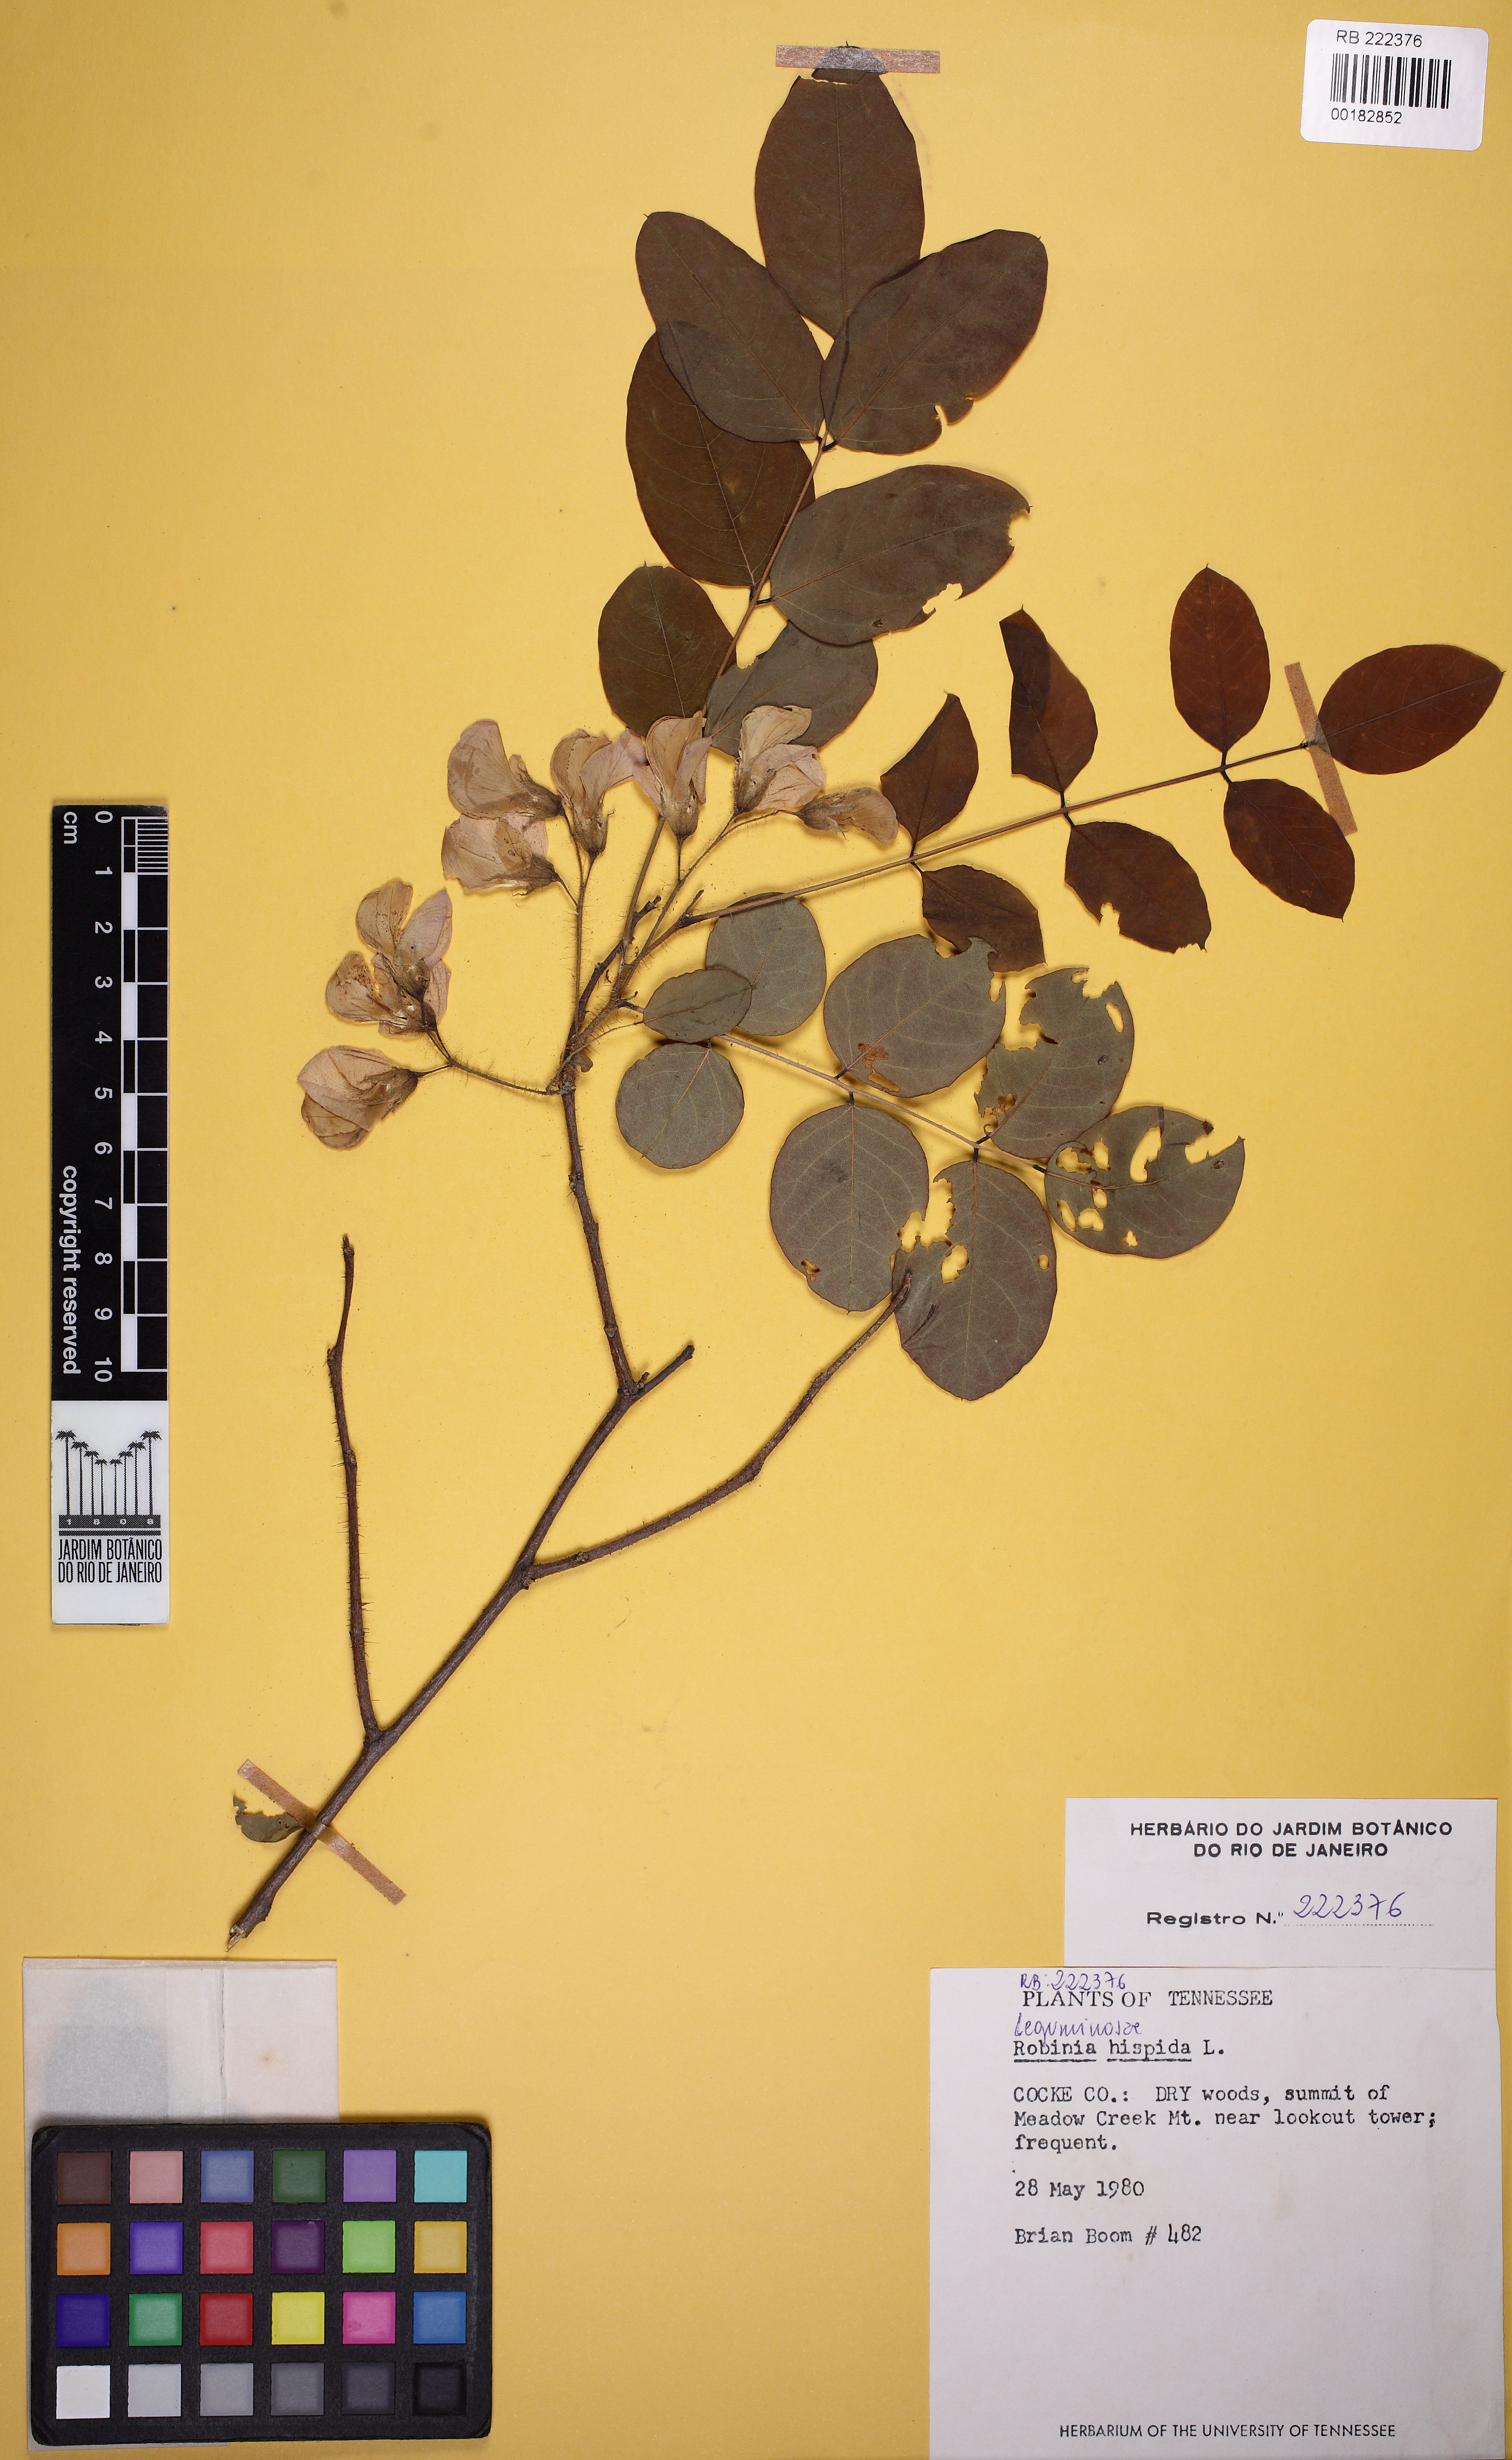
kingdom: Plantae
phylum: Tracheophyta
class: Magnoliopsida
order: Fabales
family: Fabaceae
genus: Robinia
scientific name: Robinia hispida
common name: Bristly locust
